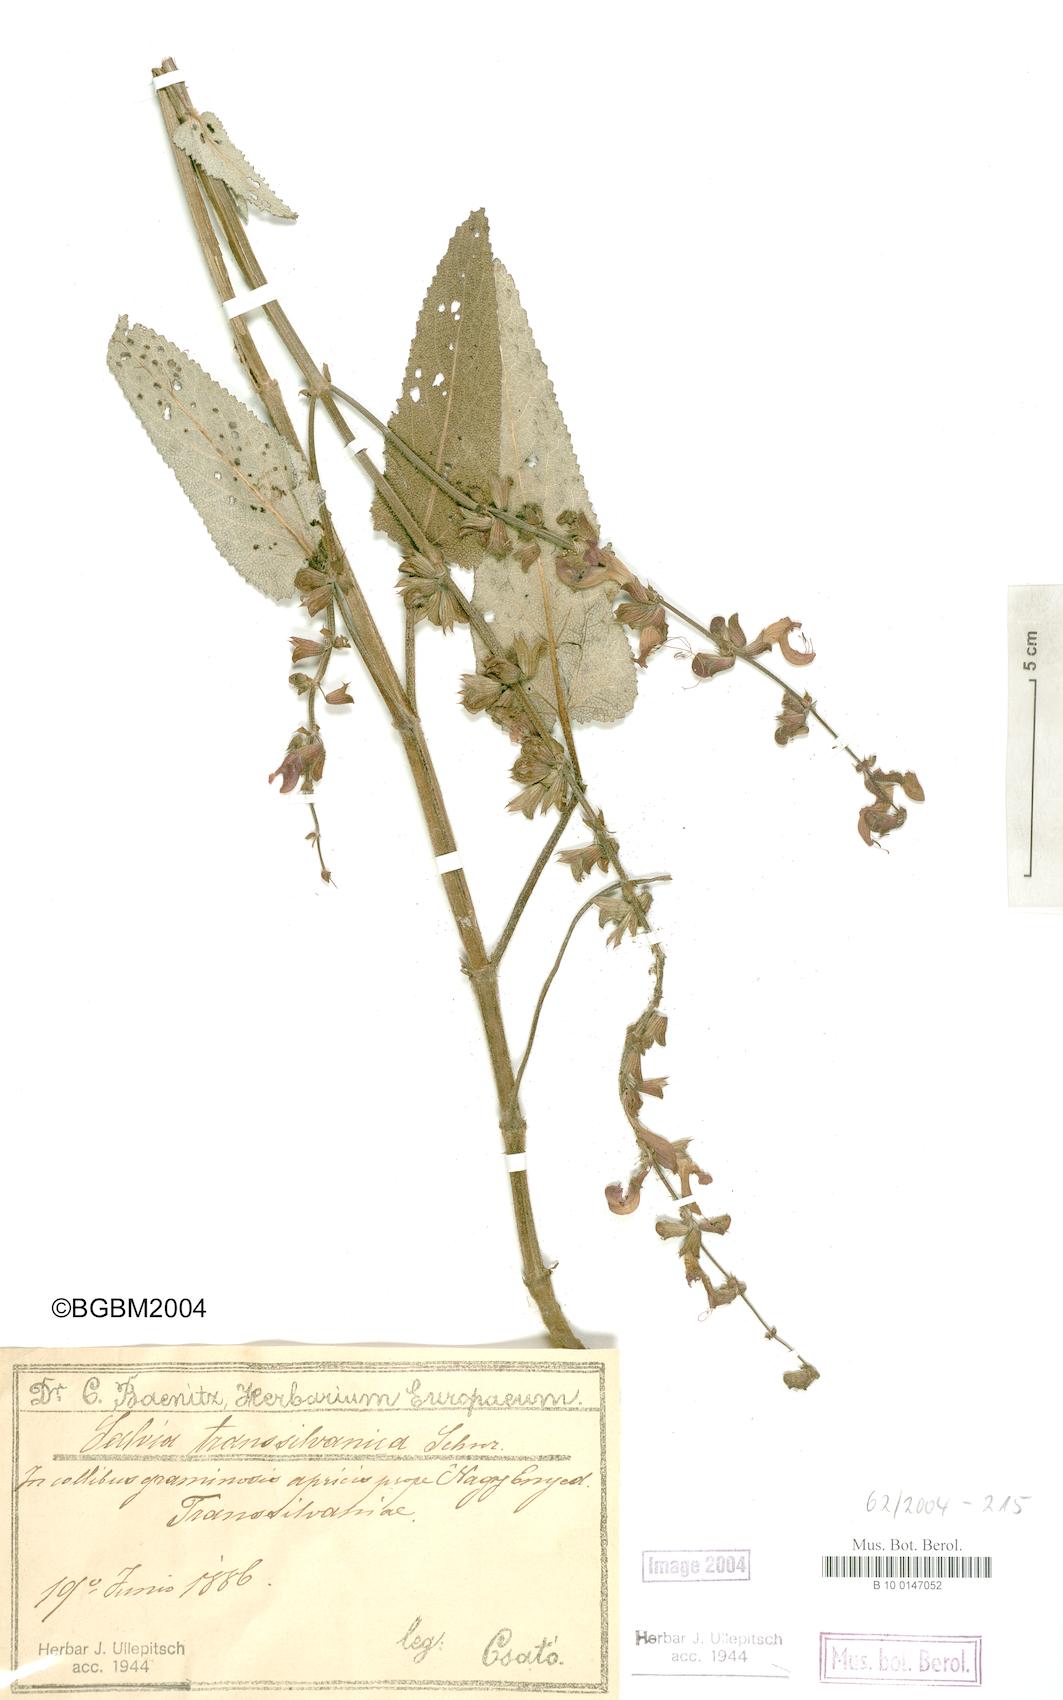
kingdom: Plantae
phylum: Tracheophyta
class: Magnoliopsida
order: Lamiales
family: Lamiaceae
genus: Salvia
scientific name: Salvia transsylvanica
